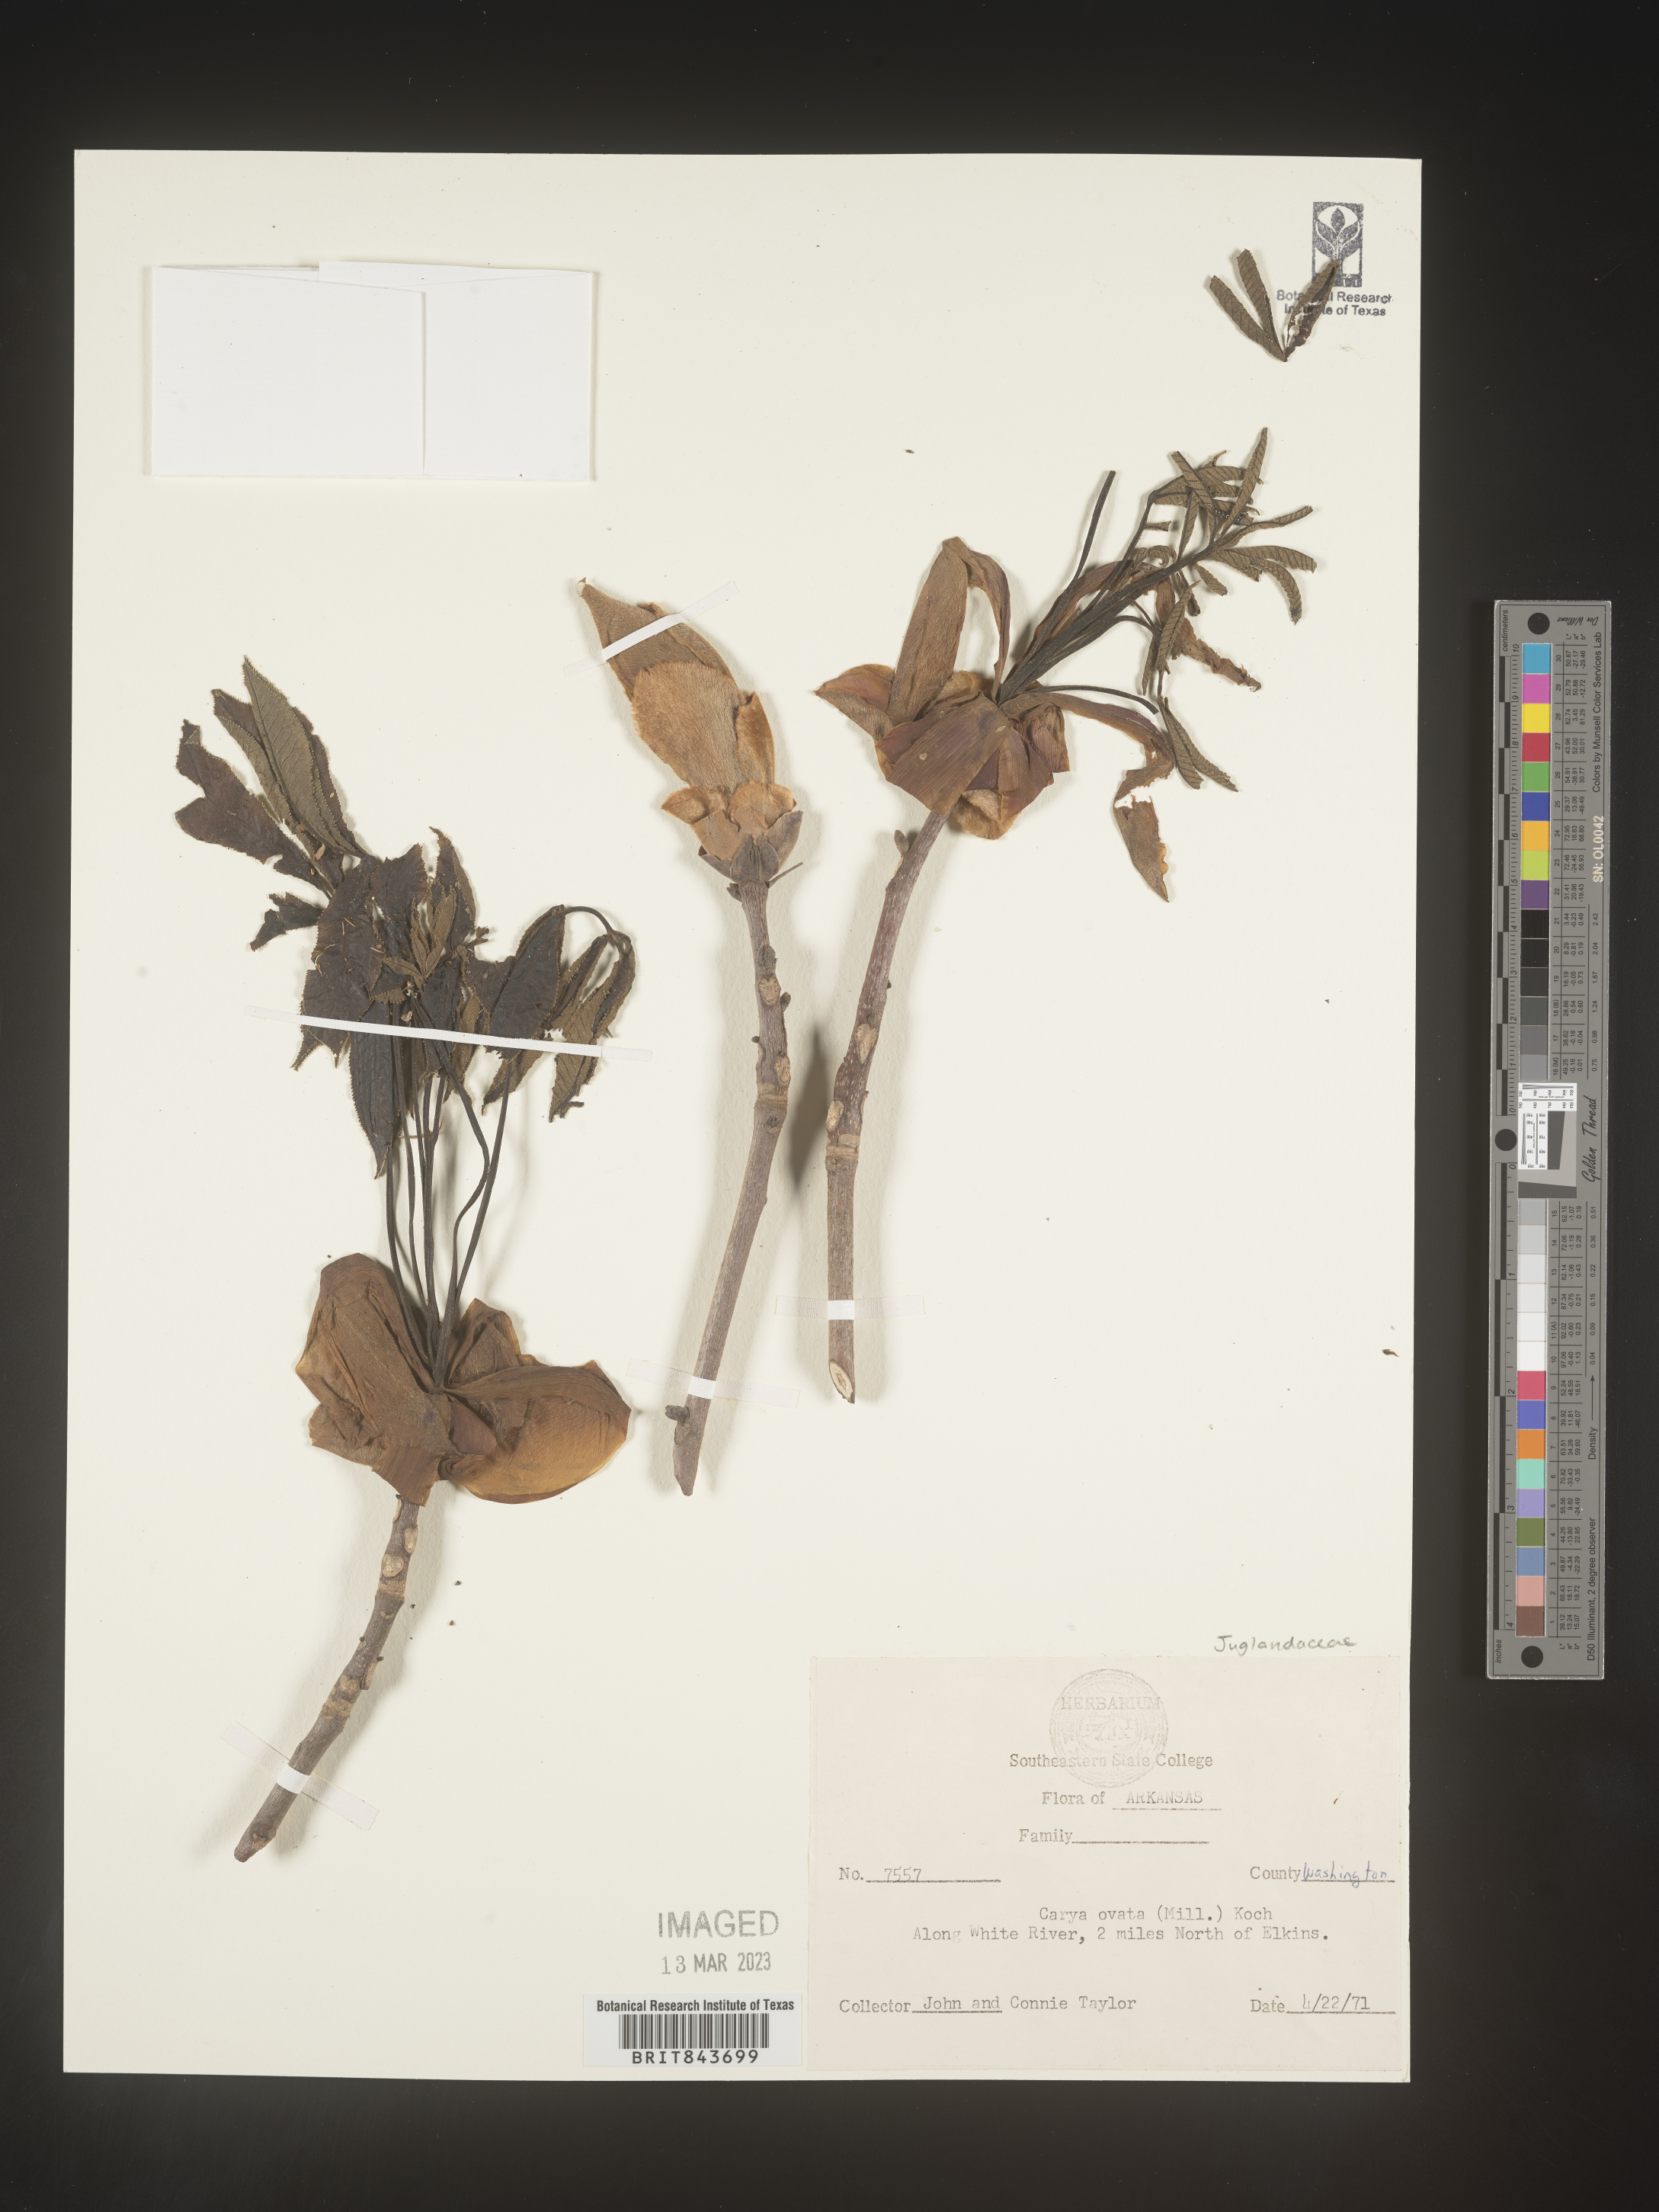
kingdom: Plantae
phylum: Tracheophyta
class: Magnoliopsida
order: Fagales
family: Juglandaceae
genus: Carya
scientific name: Carya ovata
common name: Shagbark hickory
